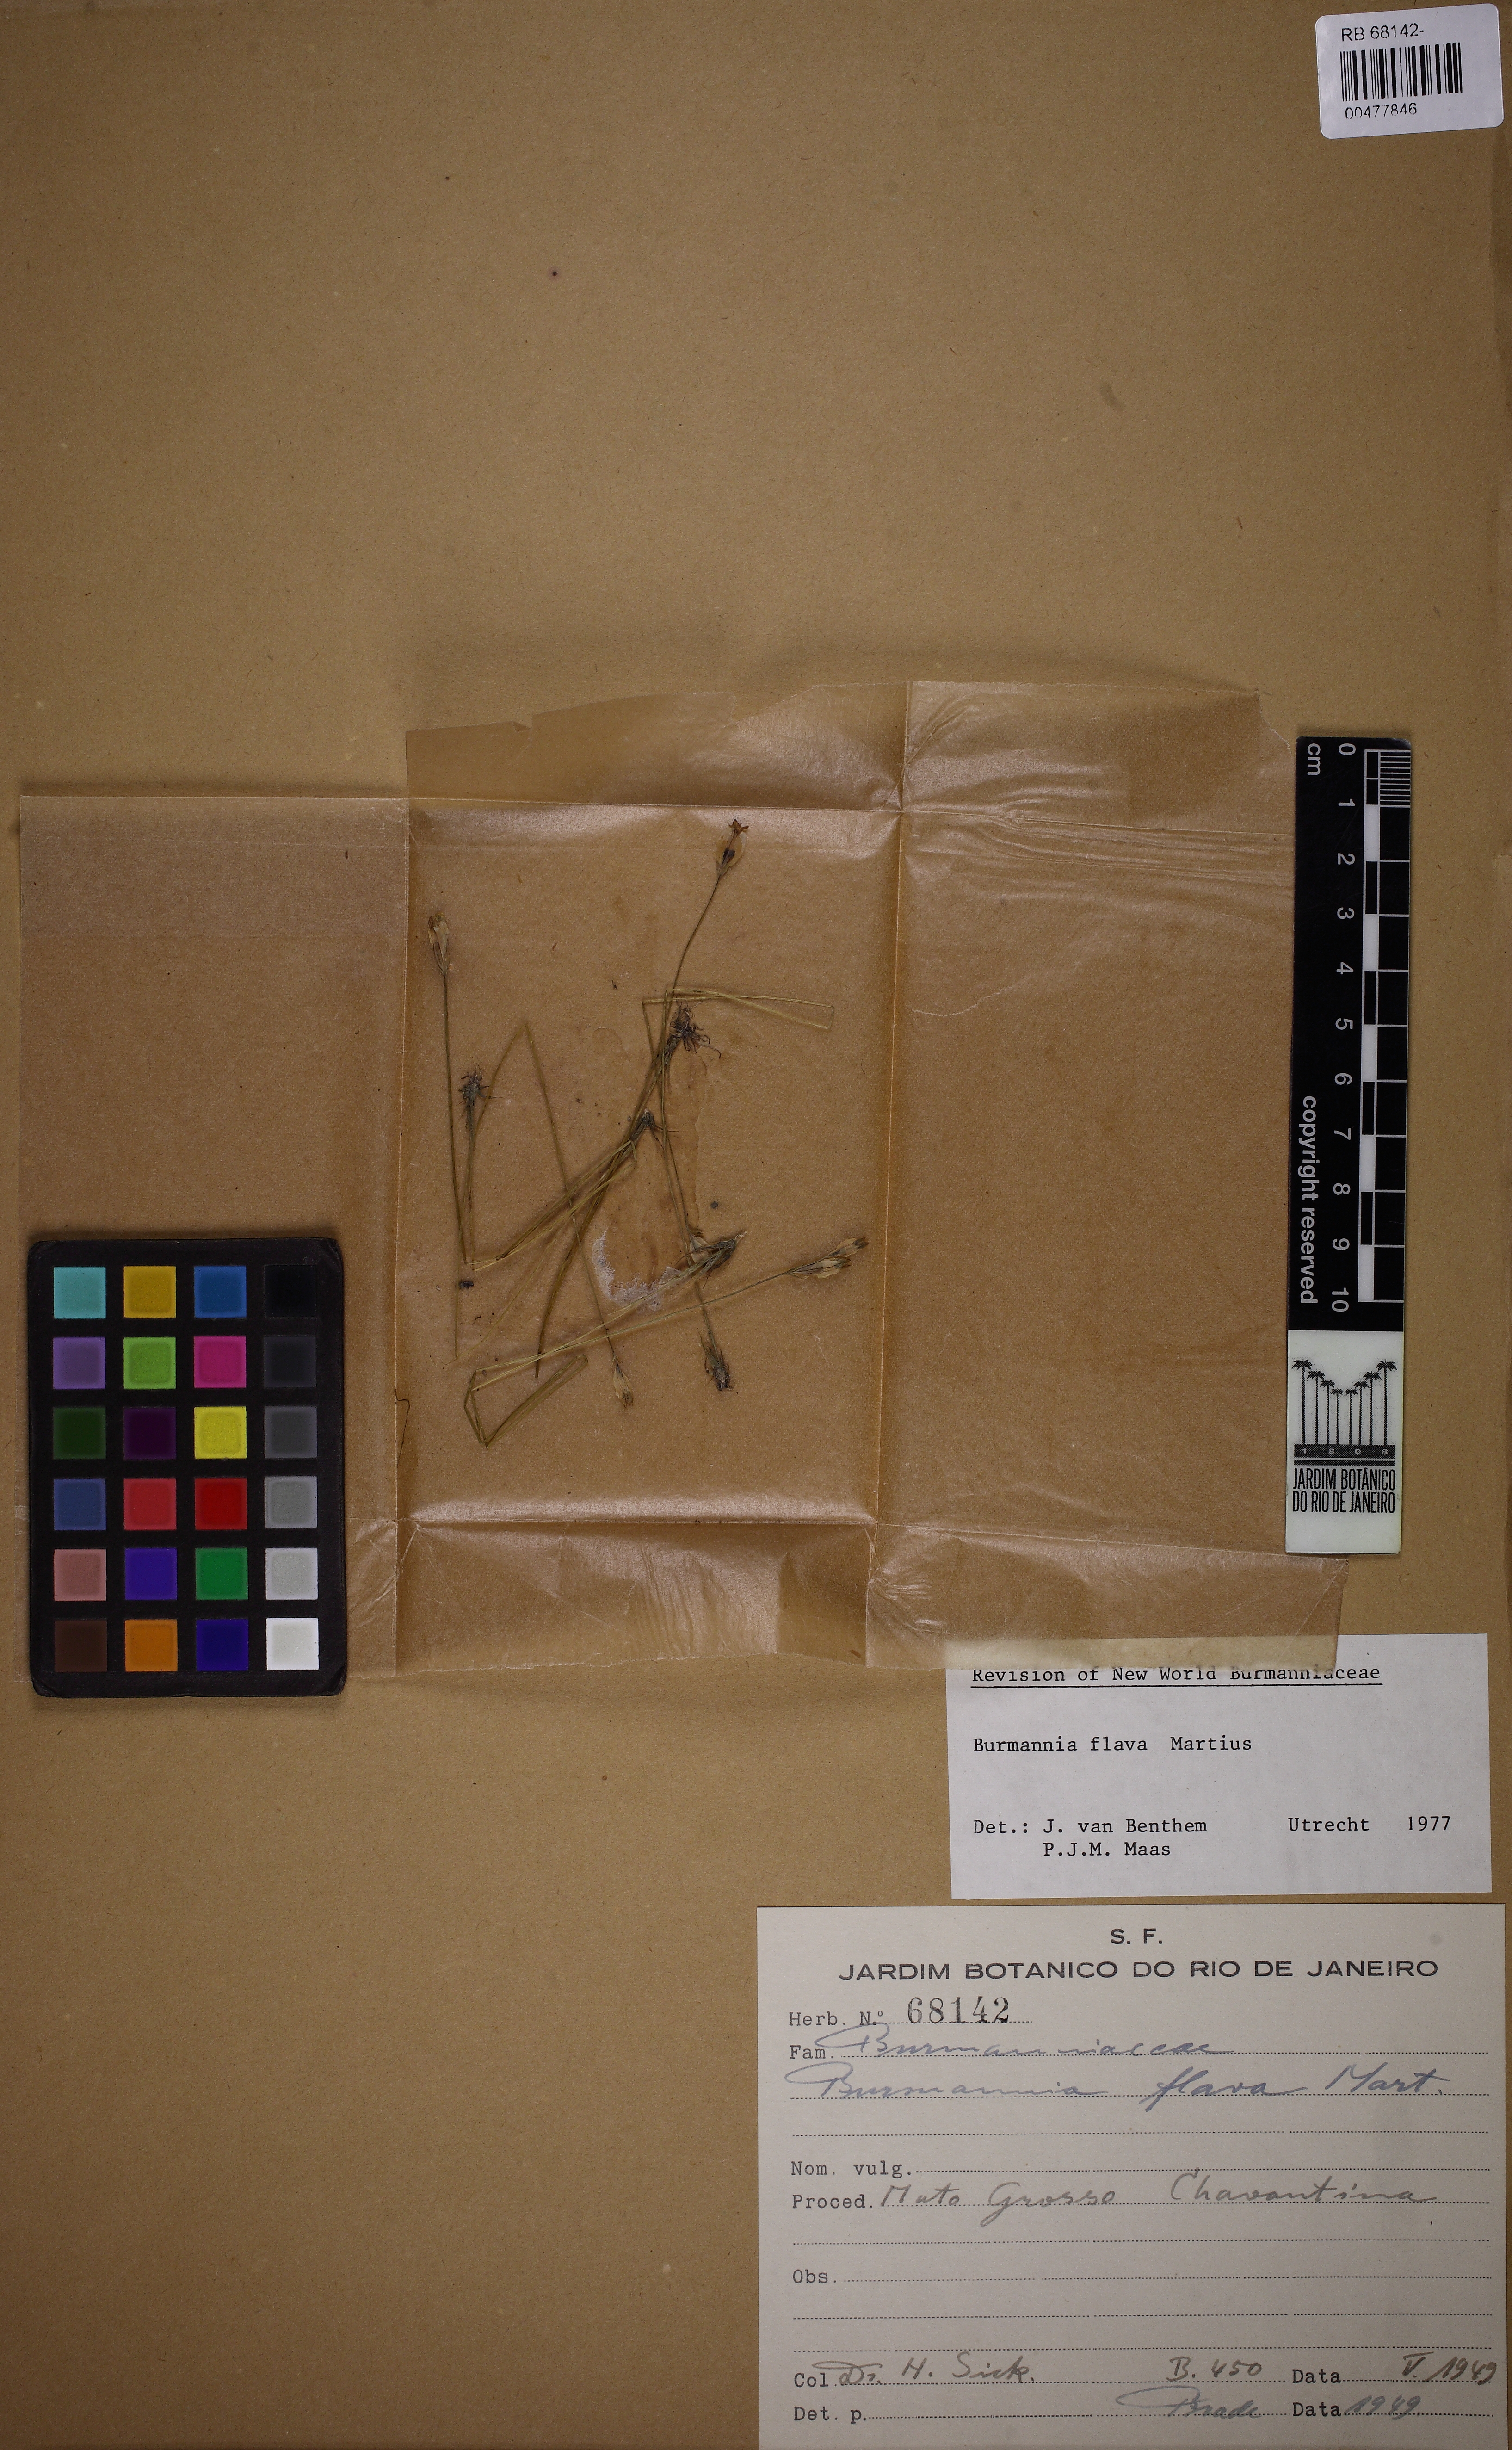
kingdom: Plantae
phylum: Tracheophyta
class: Liliopsida
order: Dioscoreales
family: Burmanniaceae
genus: Burmannia
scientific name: Burmannia flava
